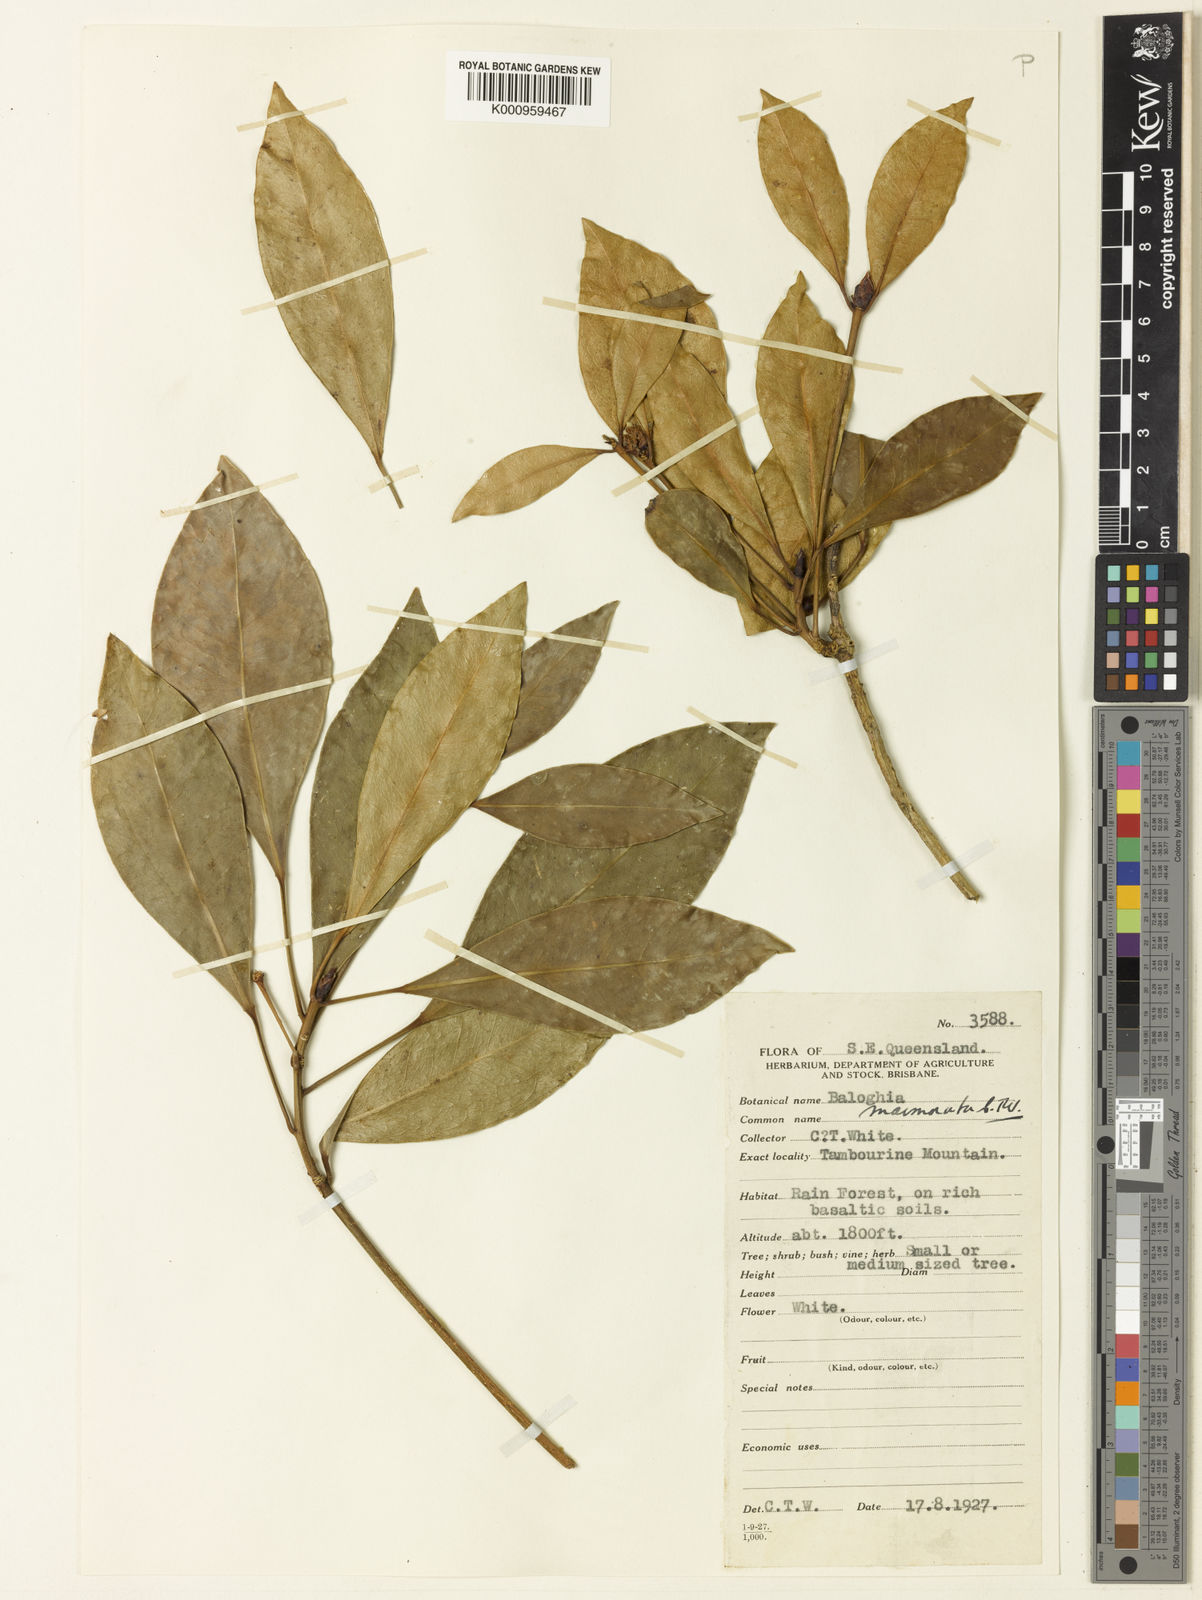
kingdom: Plantae
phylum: Tracheophyta
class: Magnoliopsida
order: Malpighiales
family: Euphorbiaceae
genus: Baloghia
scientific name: Baloghia marmorata
